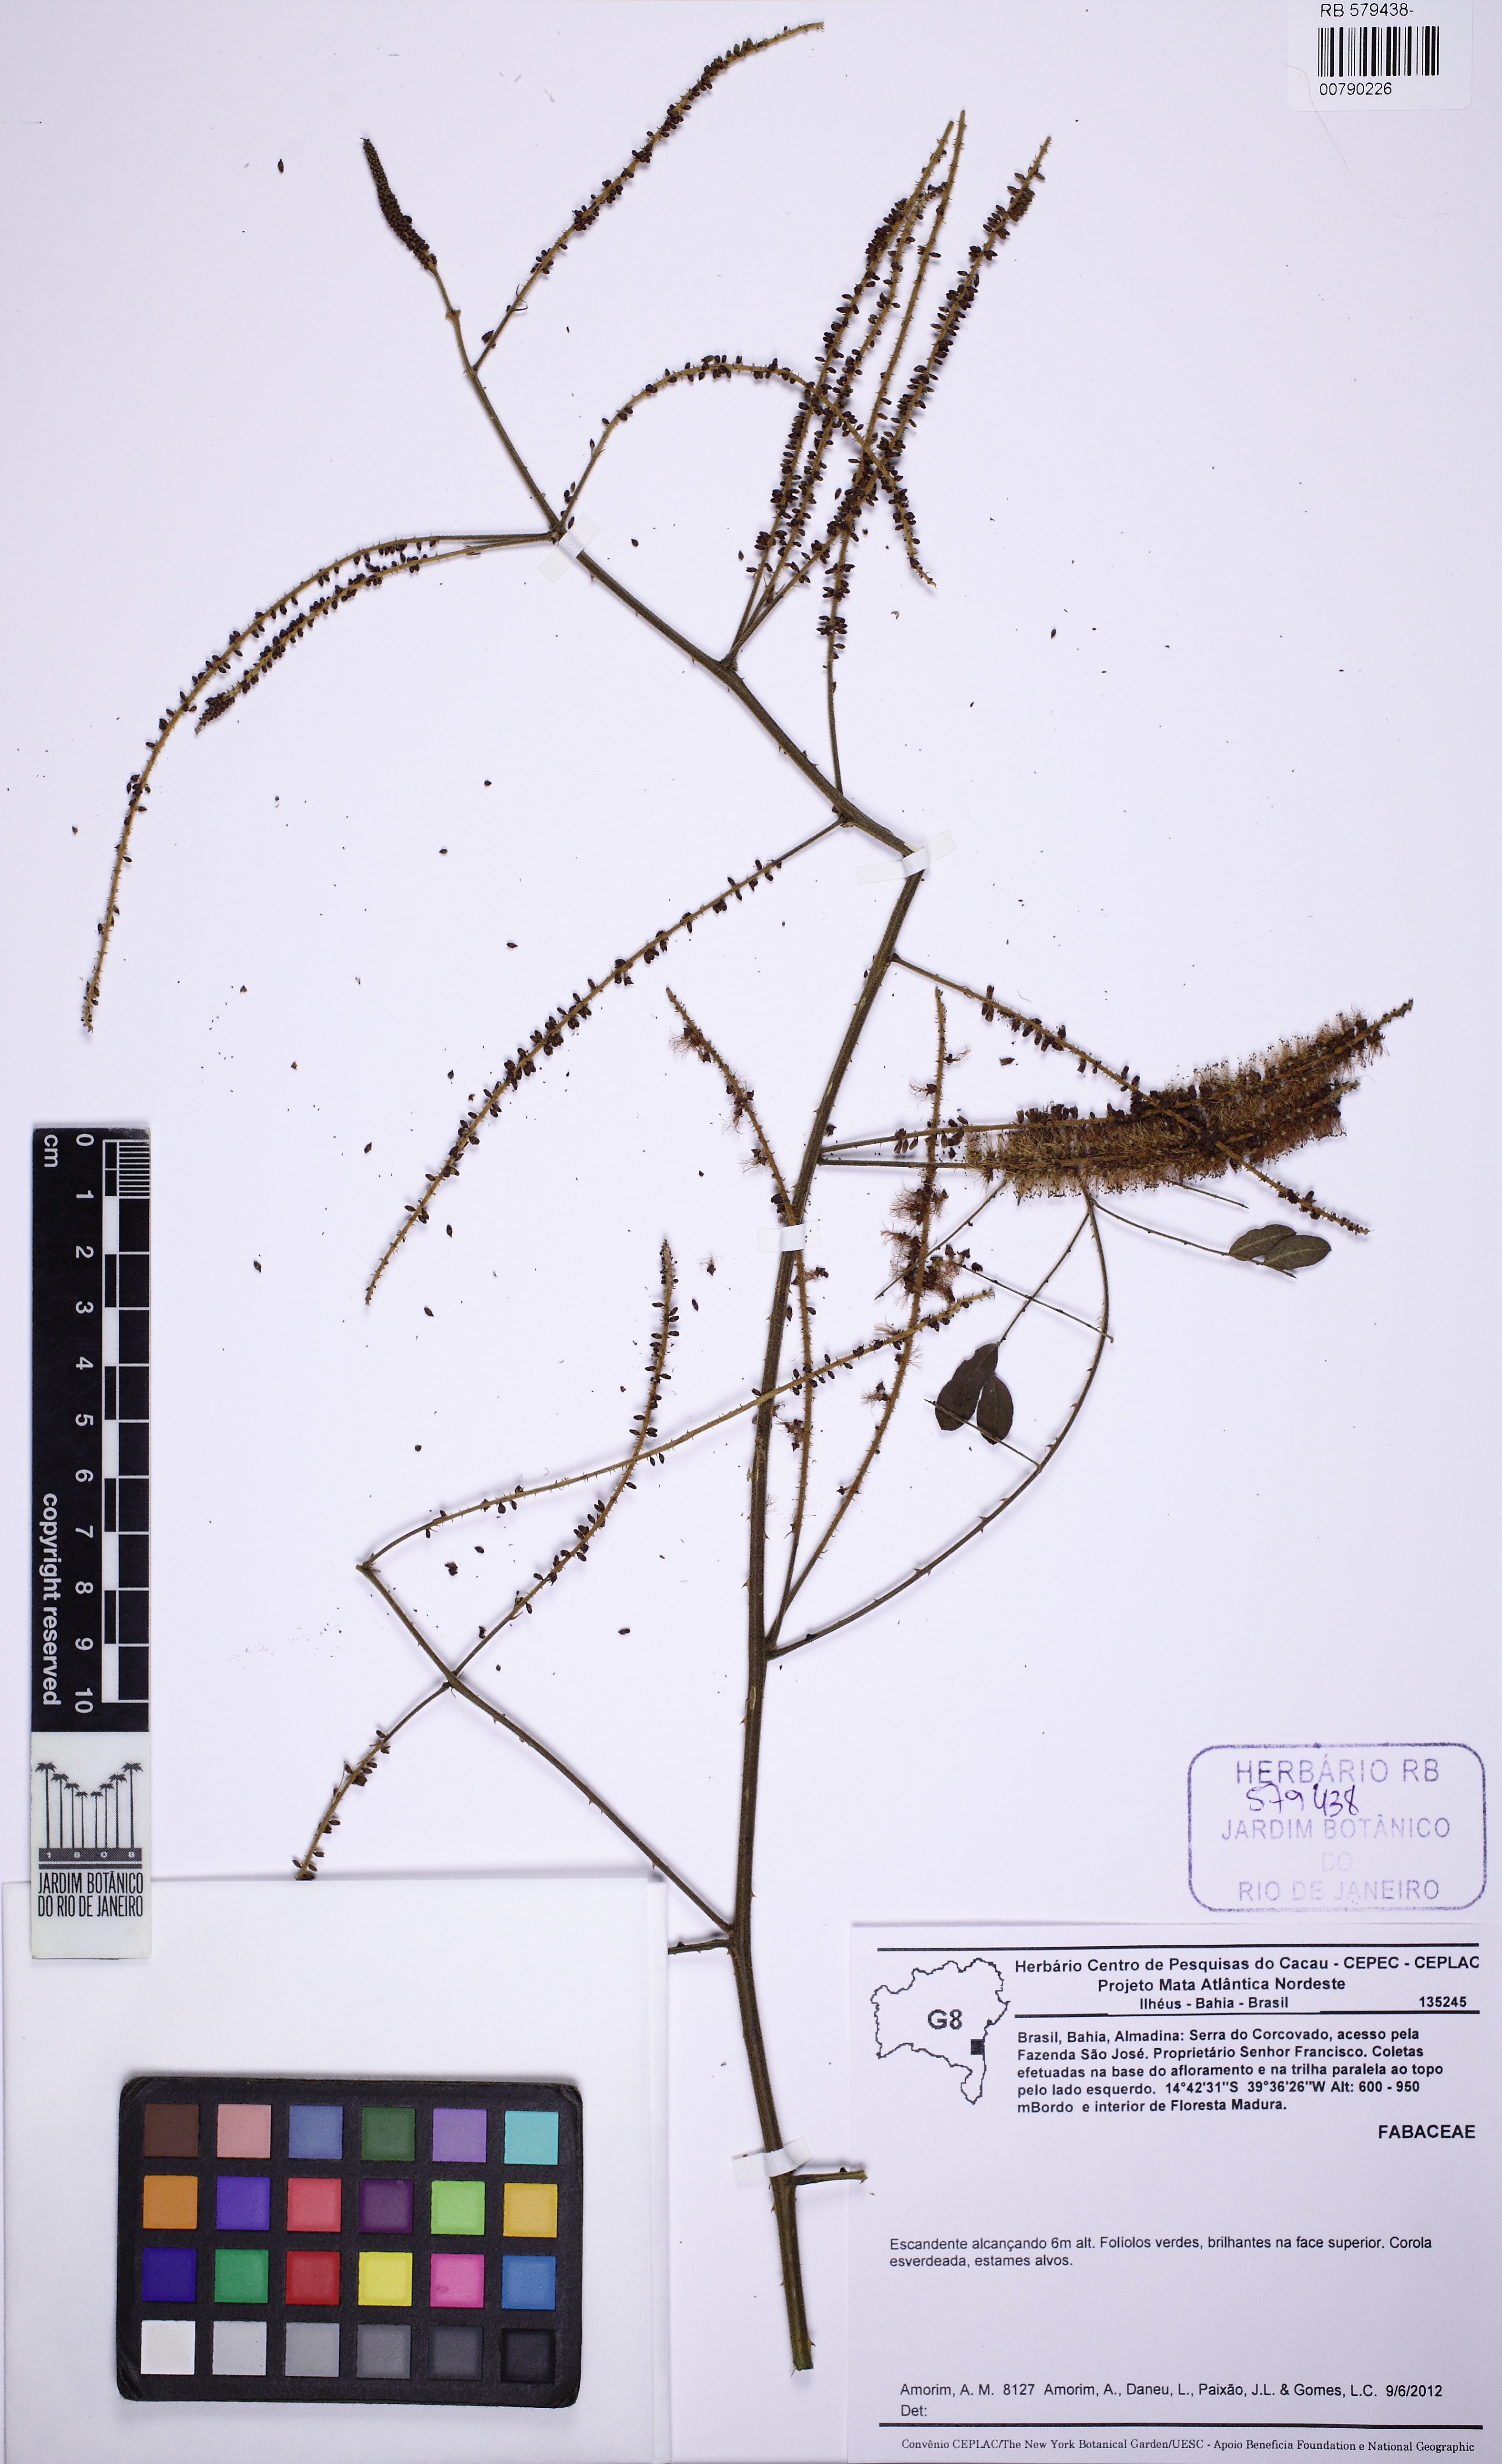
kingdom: Plantae
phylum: Tracheophyta
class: Magnoliopsida
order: Fabales
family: Fabaceae
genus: Piptadenia
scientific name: Piptadenia
